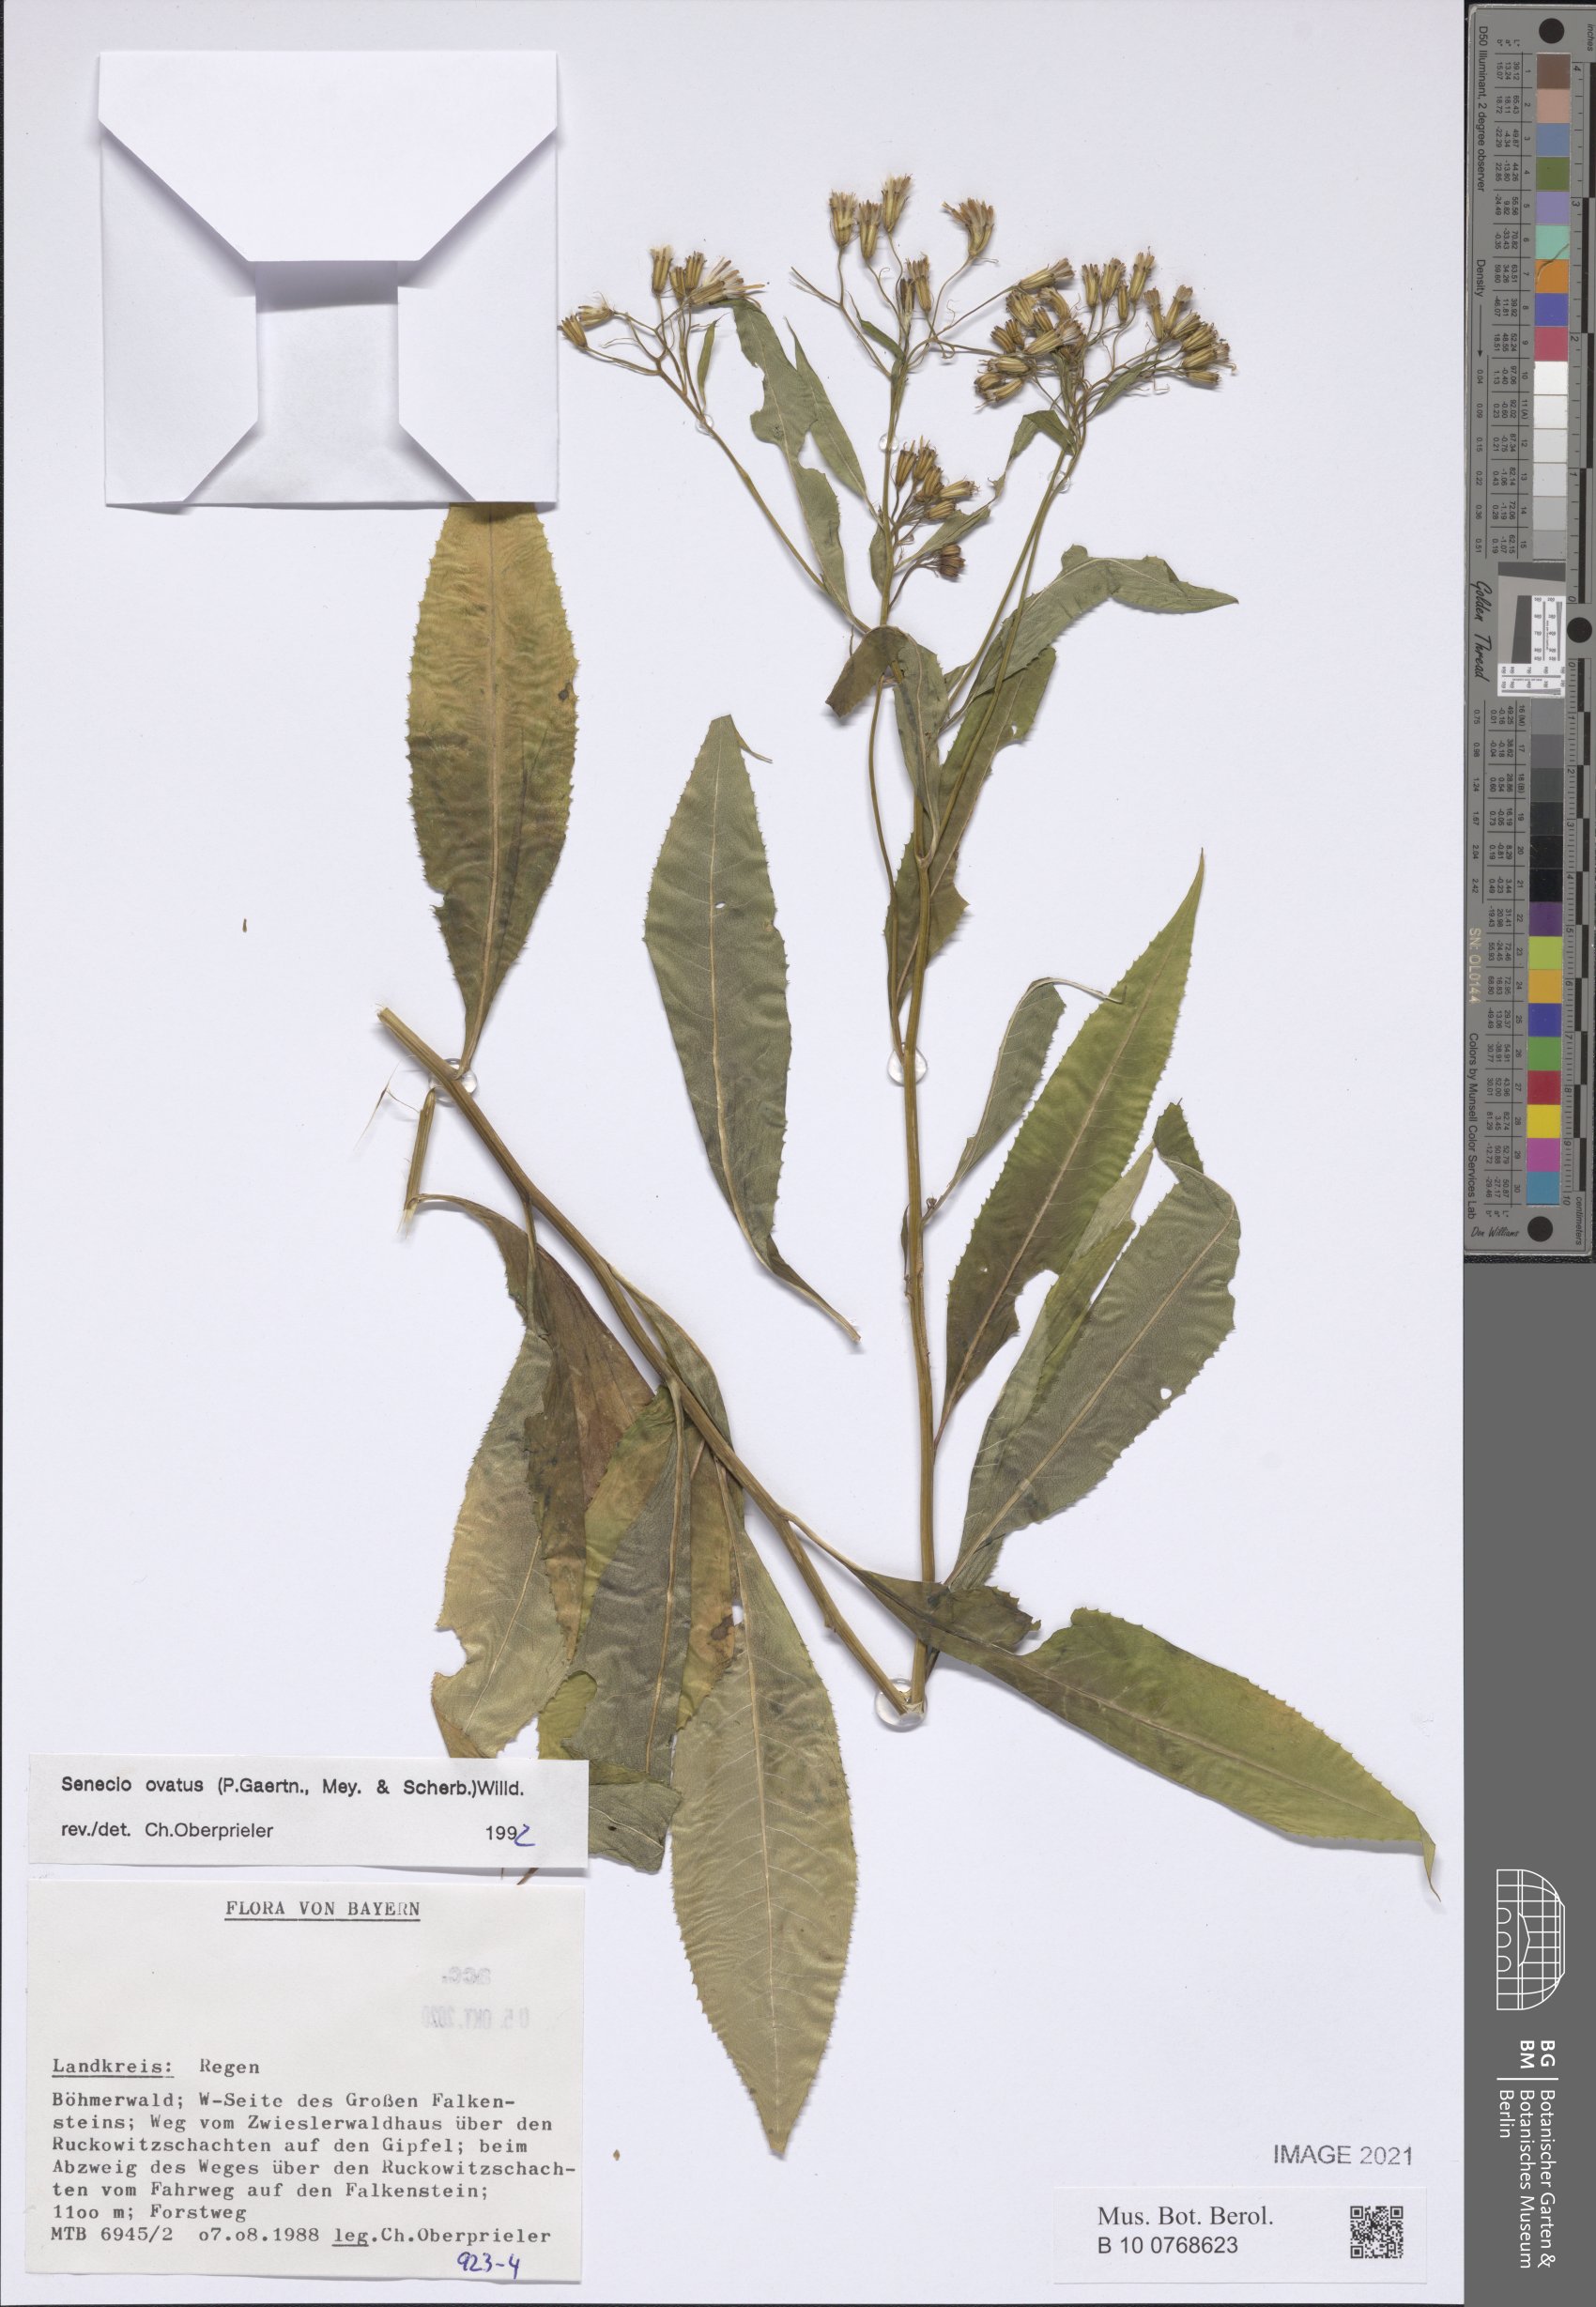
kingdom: Plantae
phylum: Tracheophyta
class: Magnoliopsida
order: Asterales
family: Asteraceae
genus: Senecio
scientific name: Senecio ovatus
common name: Wood ragwort
